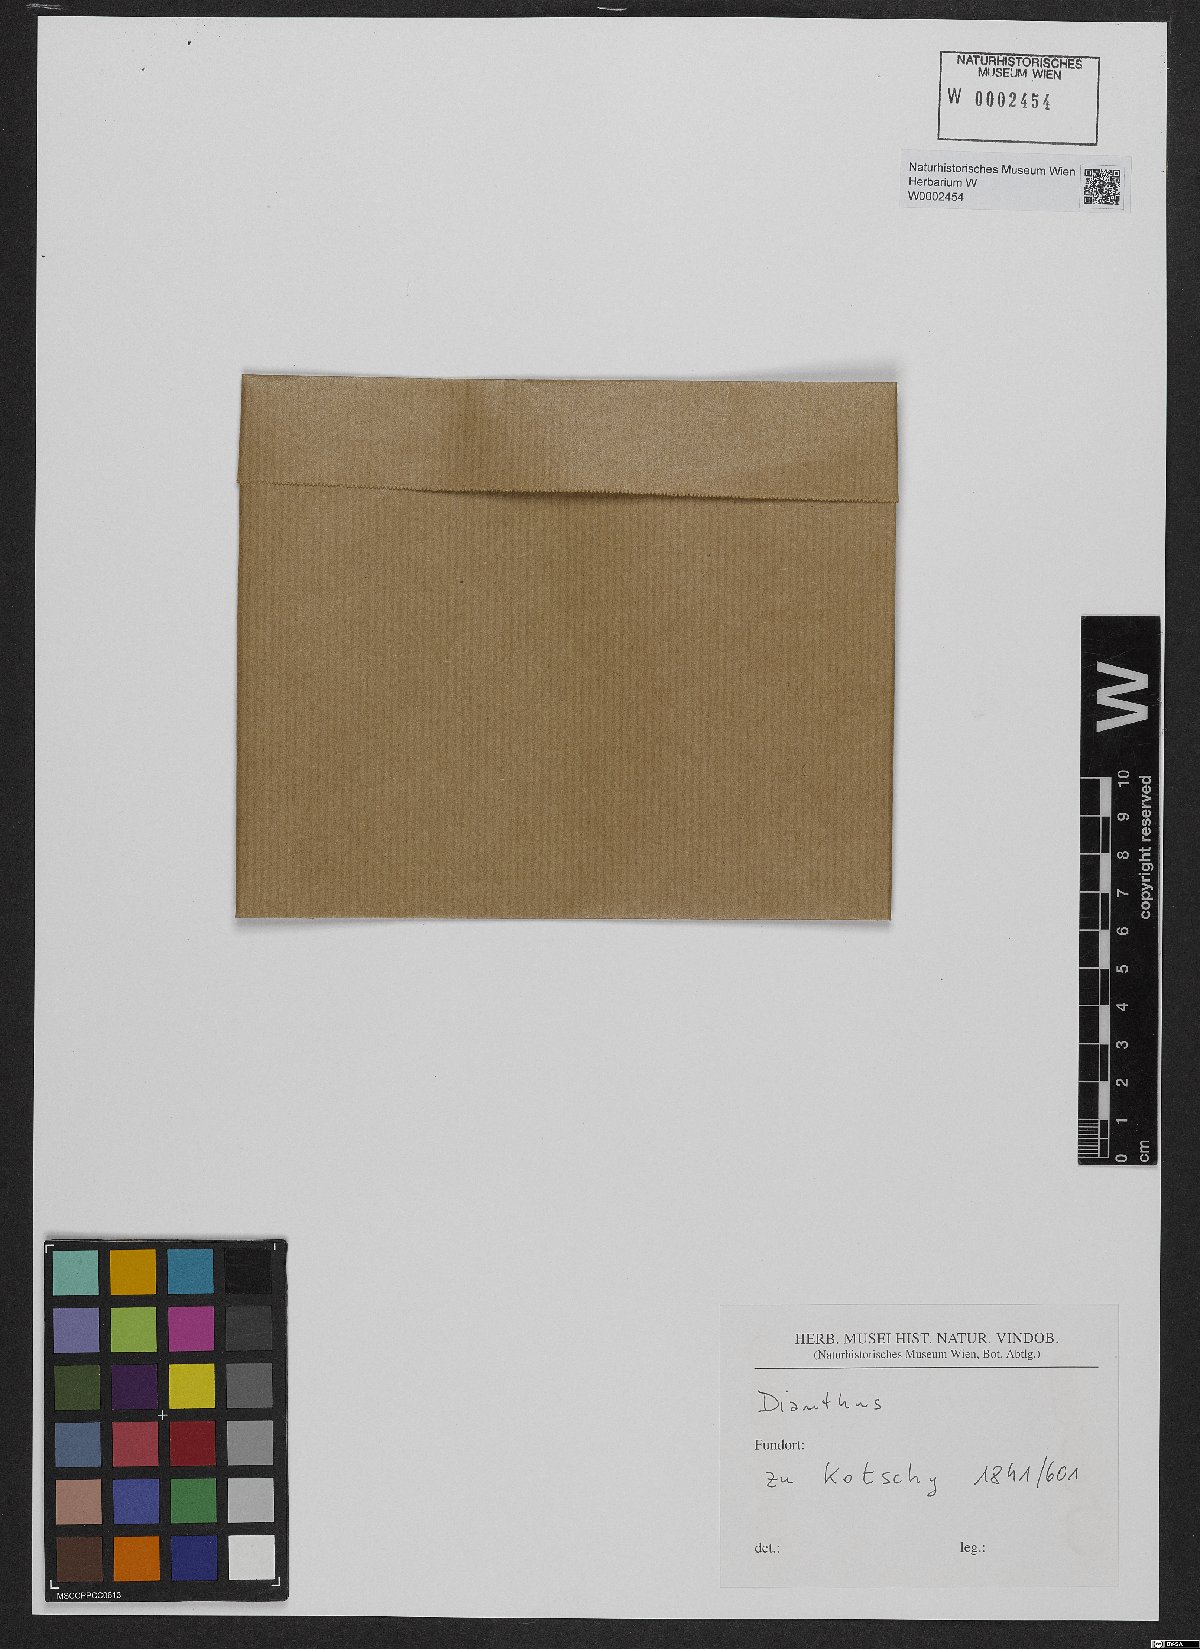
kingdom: Plantae
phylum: Tracheophyta
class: Magnoliopsida
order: Caryophyllales
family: Caryophyllaceae
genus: Dianthus
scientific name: Dianthus
